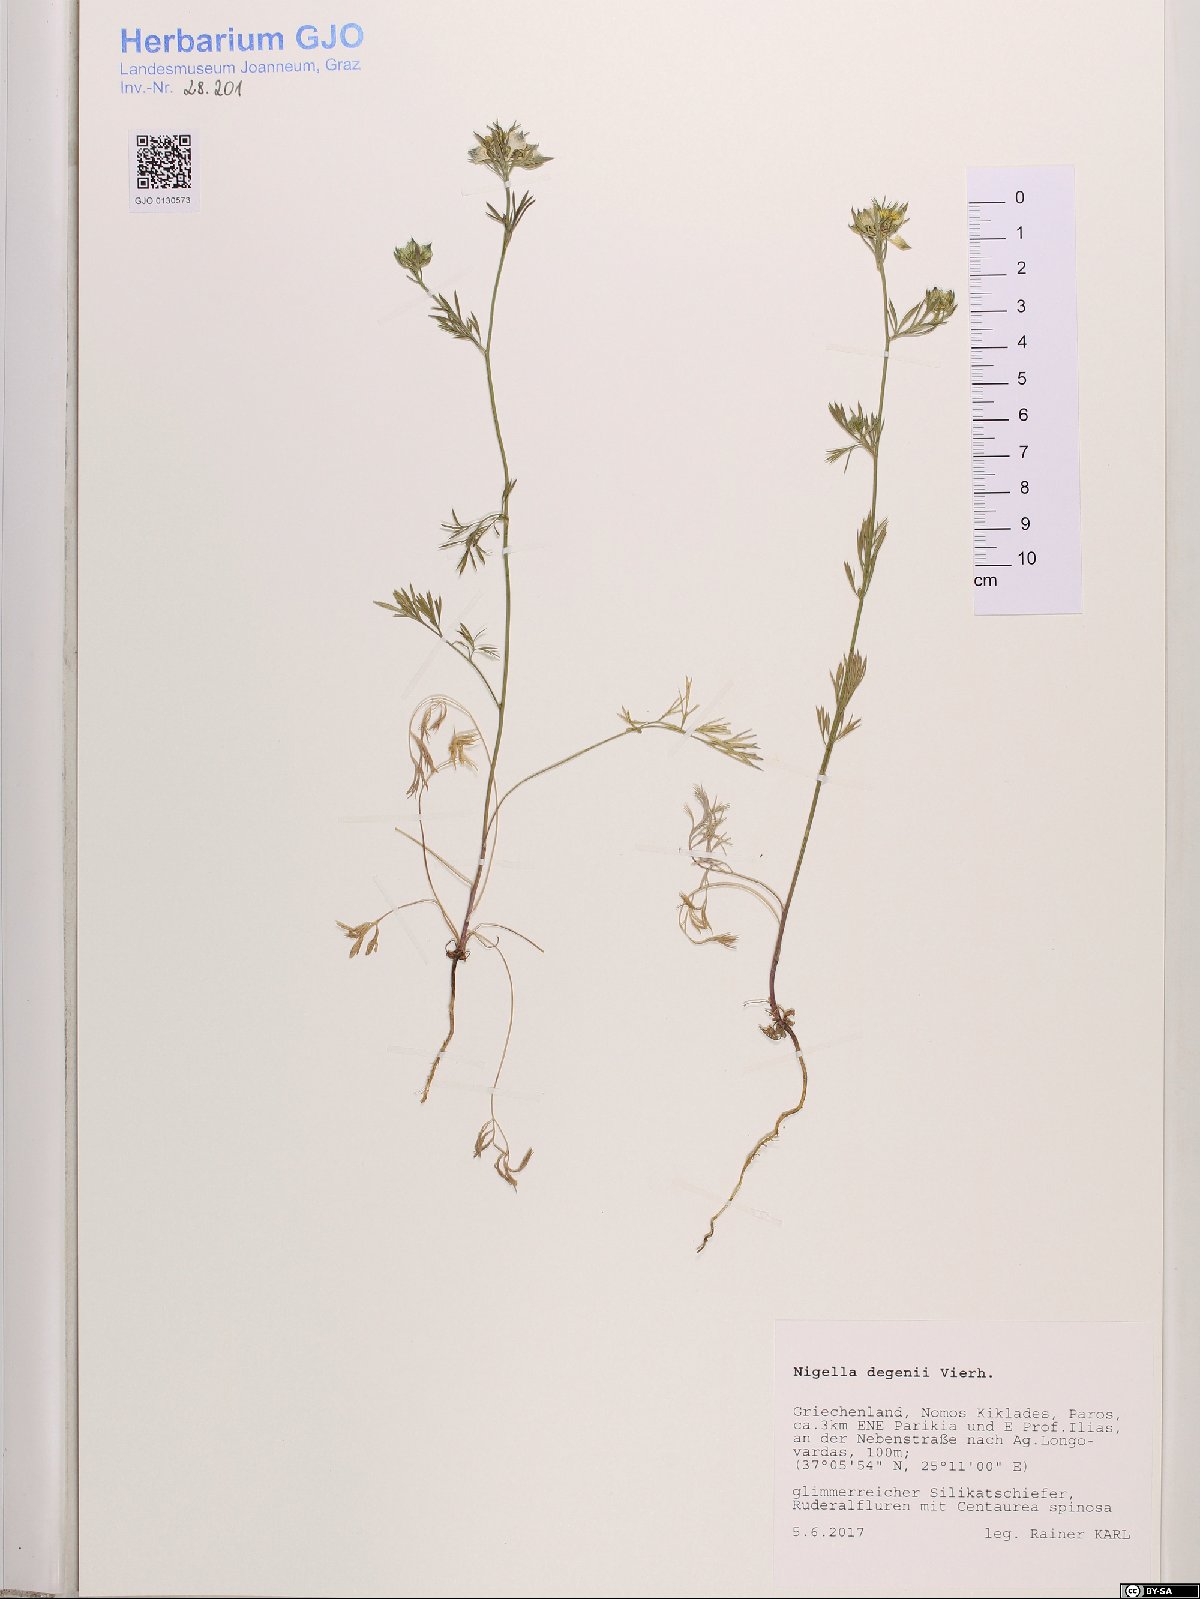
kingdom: Plantae
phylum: Tracheophyta
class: Magnoliopsida
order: Ranunculales
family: Ranunculaceae
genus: Nigella
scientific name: Nigella degenii
